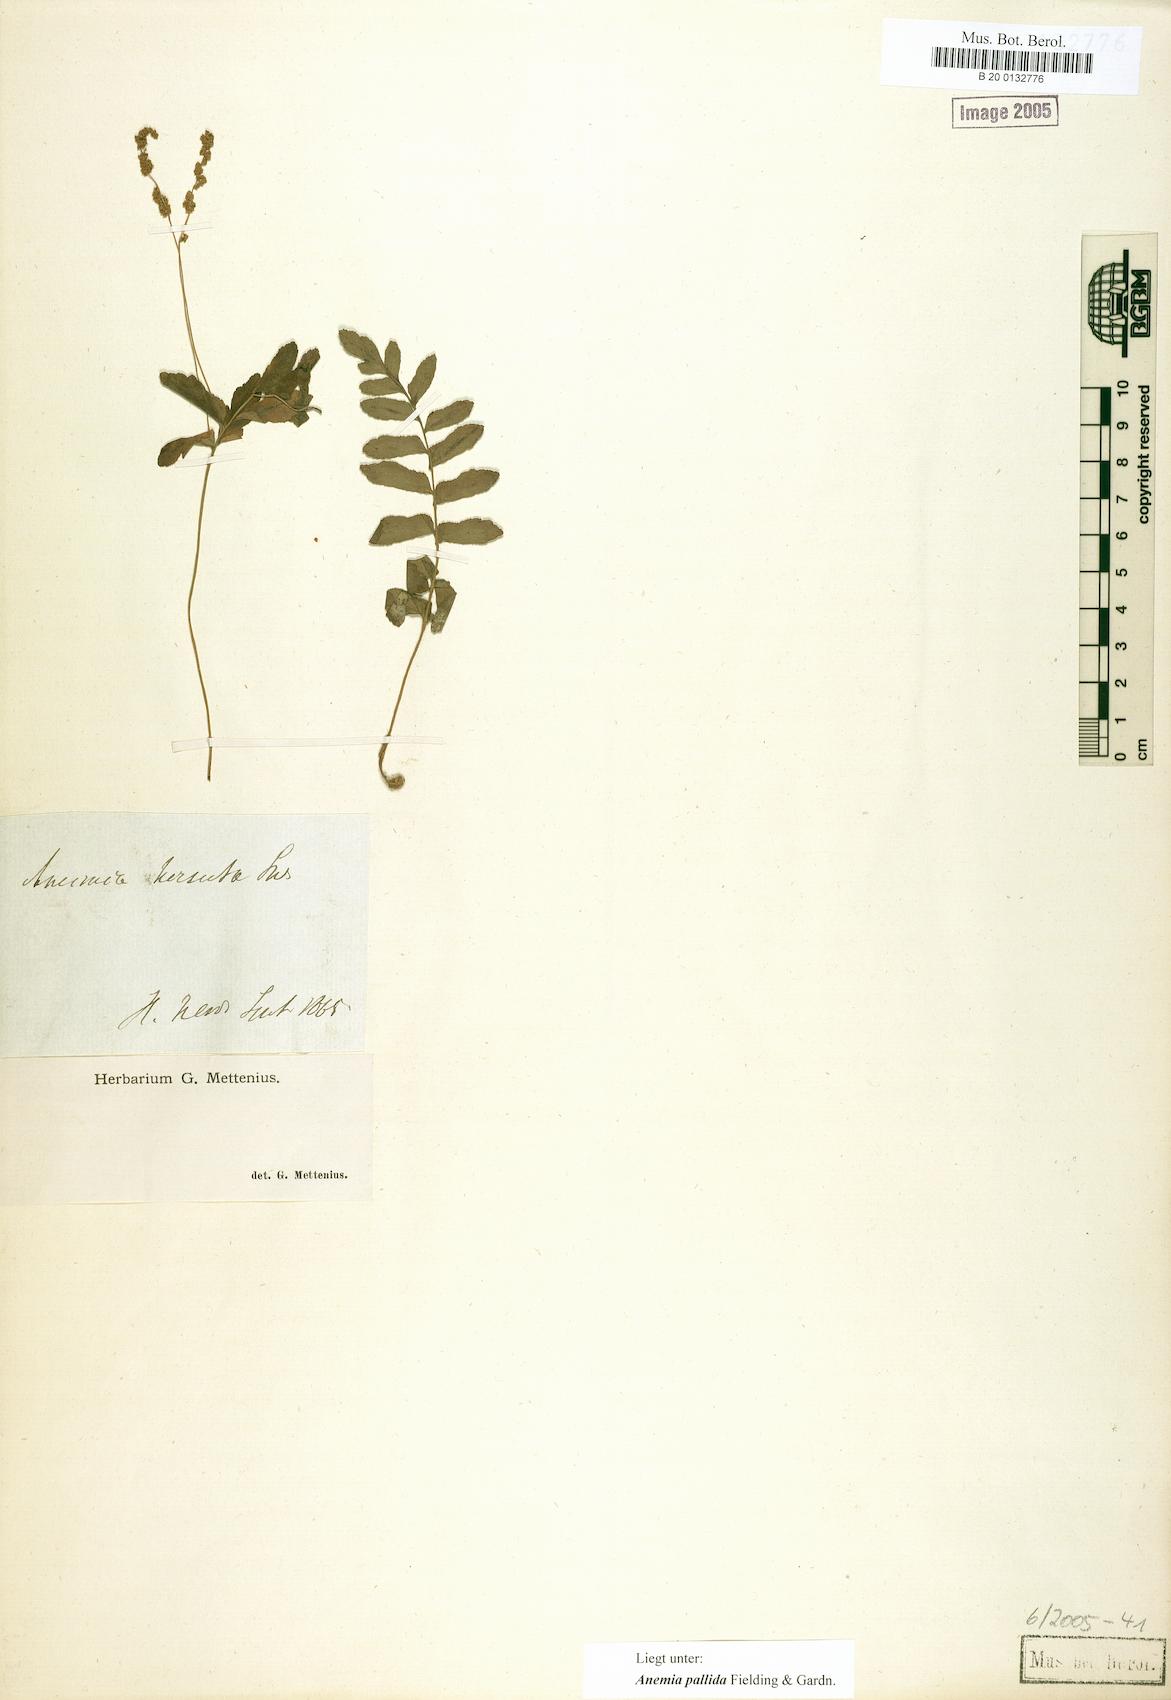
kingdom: Plantae
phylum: Tracheophyta
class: Polypodiopsida
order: Schizaeales
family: Anemiaceae
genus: Anemia
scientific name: Anemia hispida
